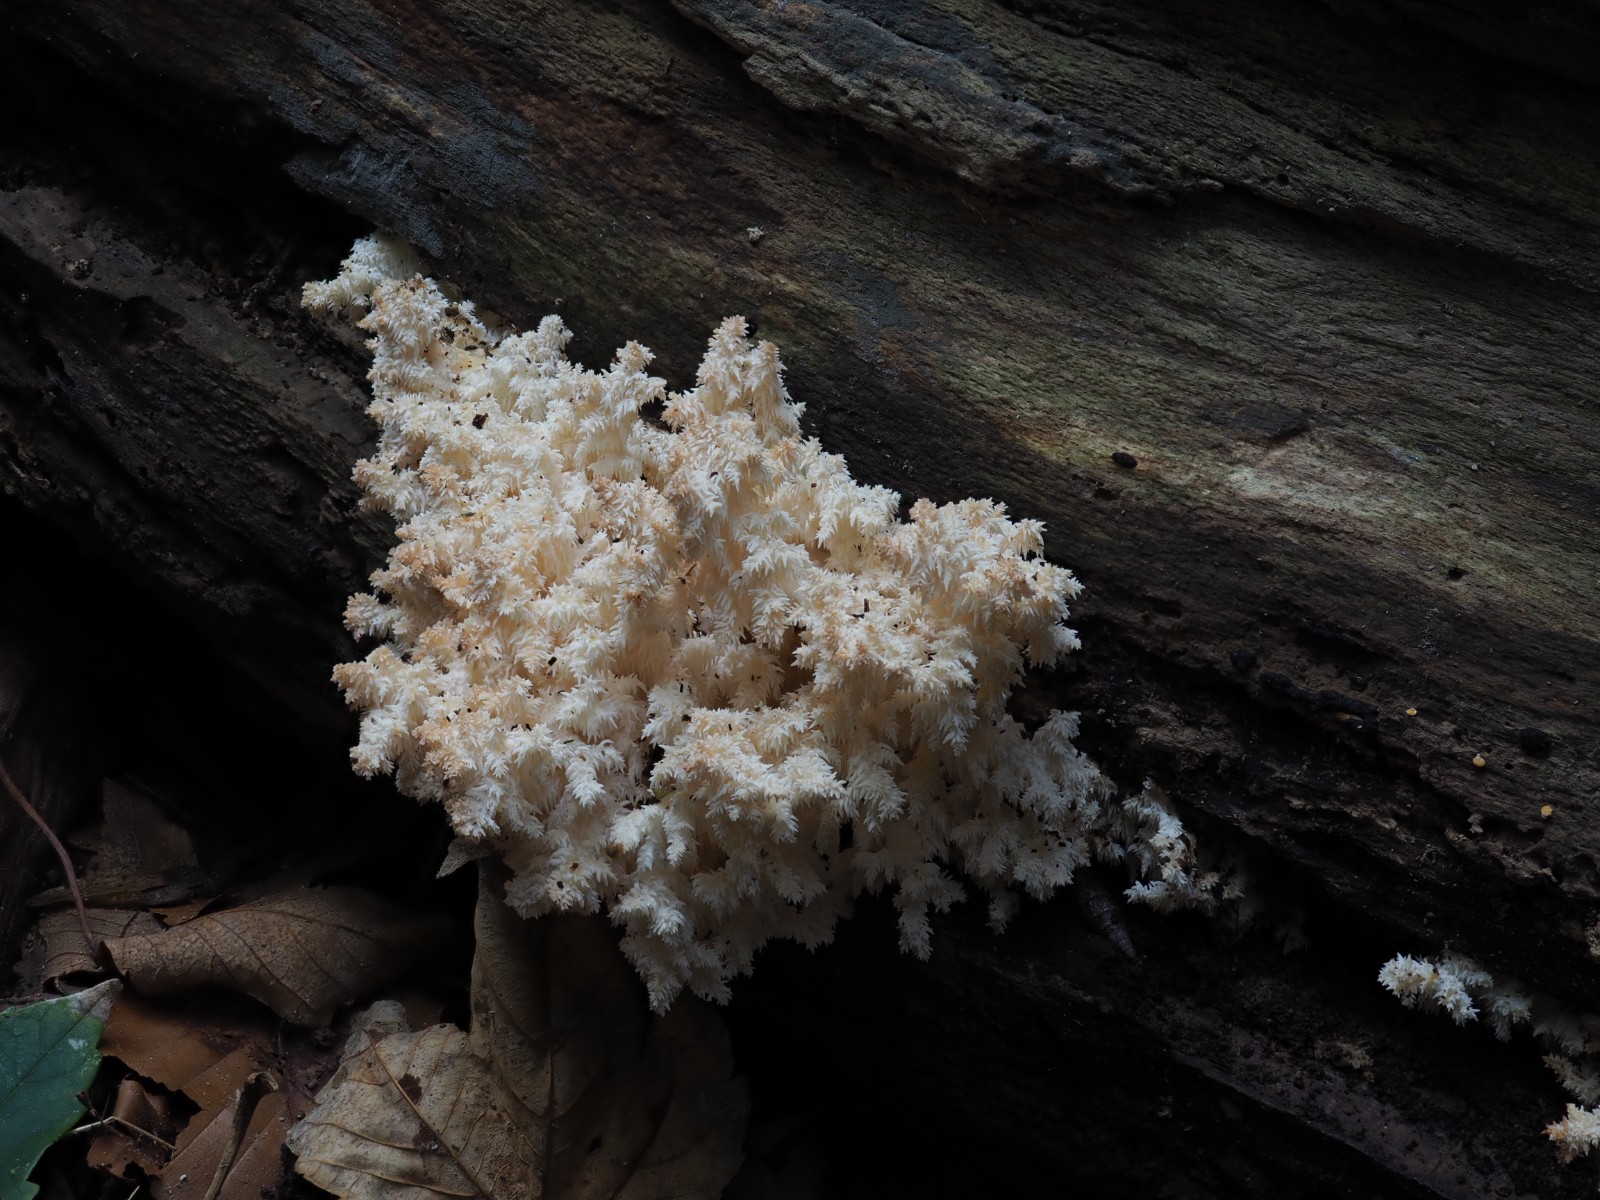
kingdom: Fungi
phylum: Basidiomycota
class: Agaricomycetes
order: Russulales
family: Hericiaceae
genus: Hericium
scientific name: Hericium coralloides
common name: koralpigsvamp
